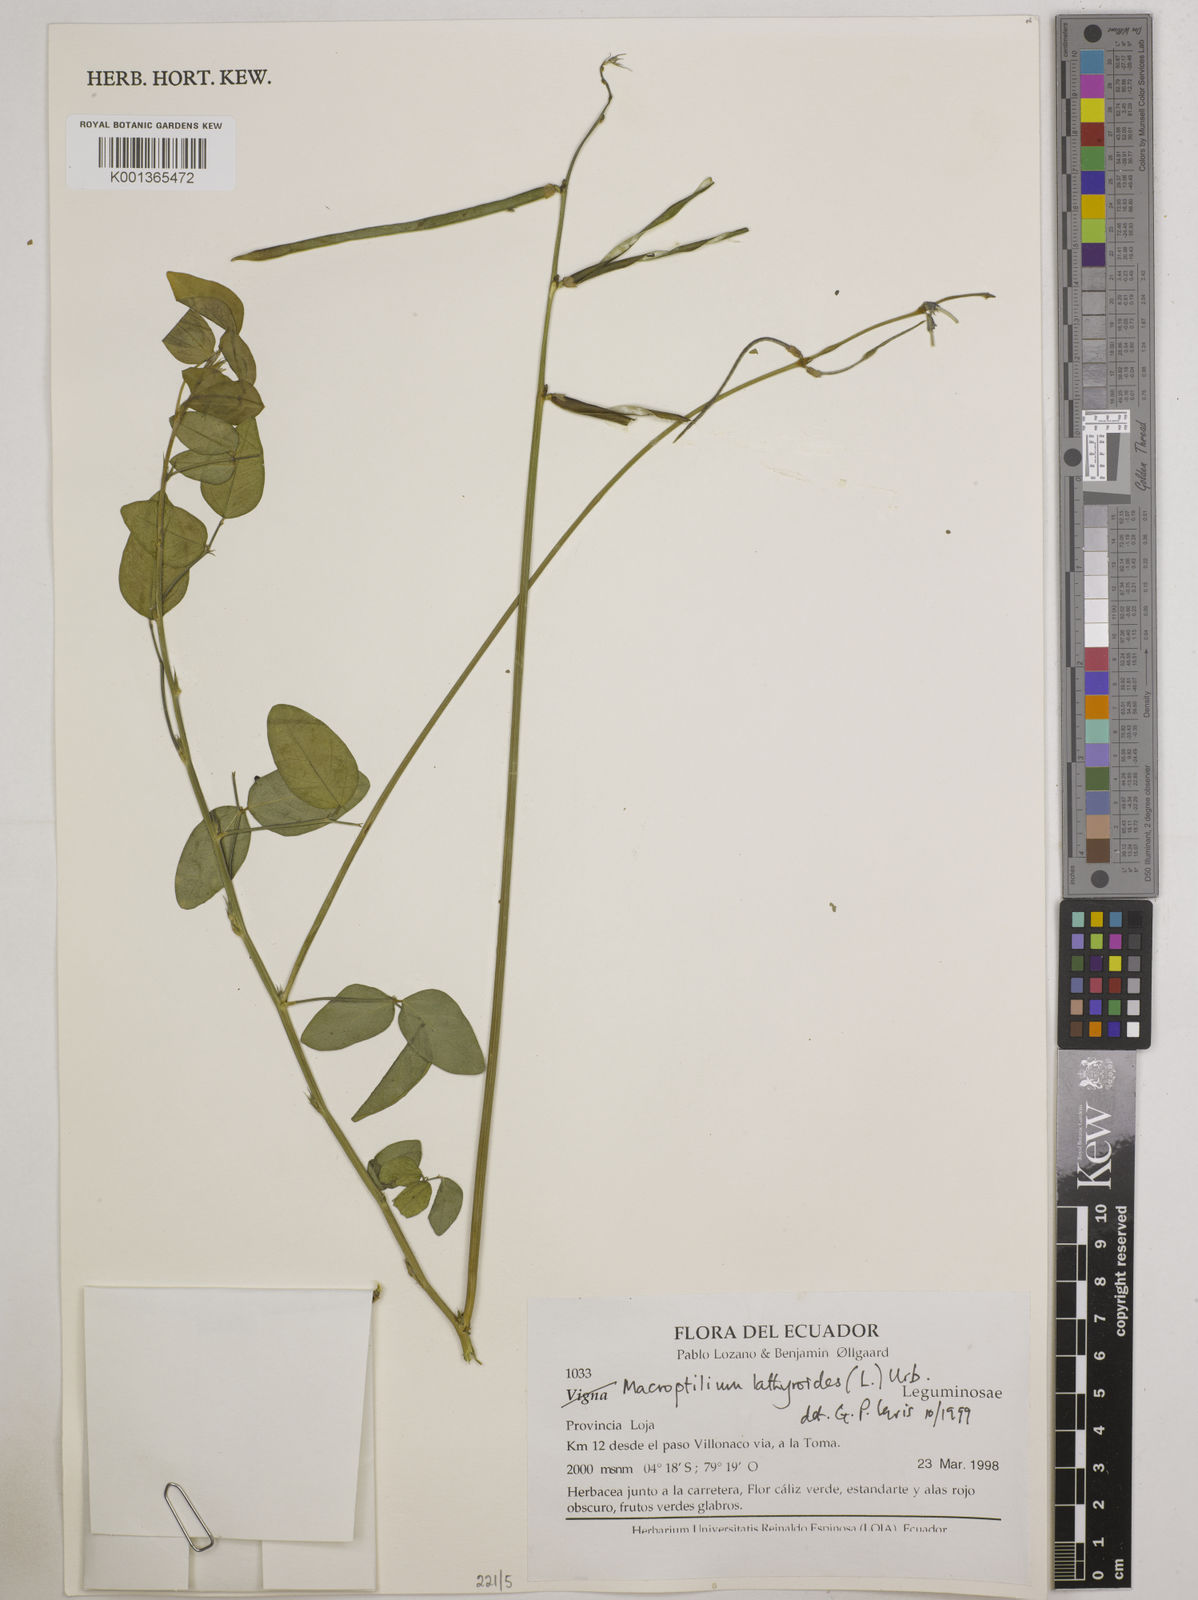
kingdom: Plantae
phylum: Tracheophyta
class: Magnoliopsida
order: Fabales
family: Fabaceae
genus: Macroptilium
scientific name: Macroptilium lathyroides
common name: Wild bushbean
